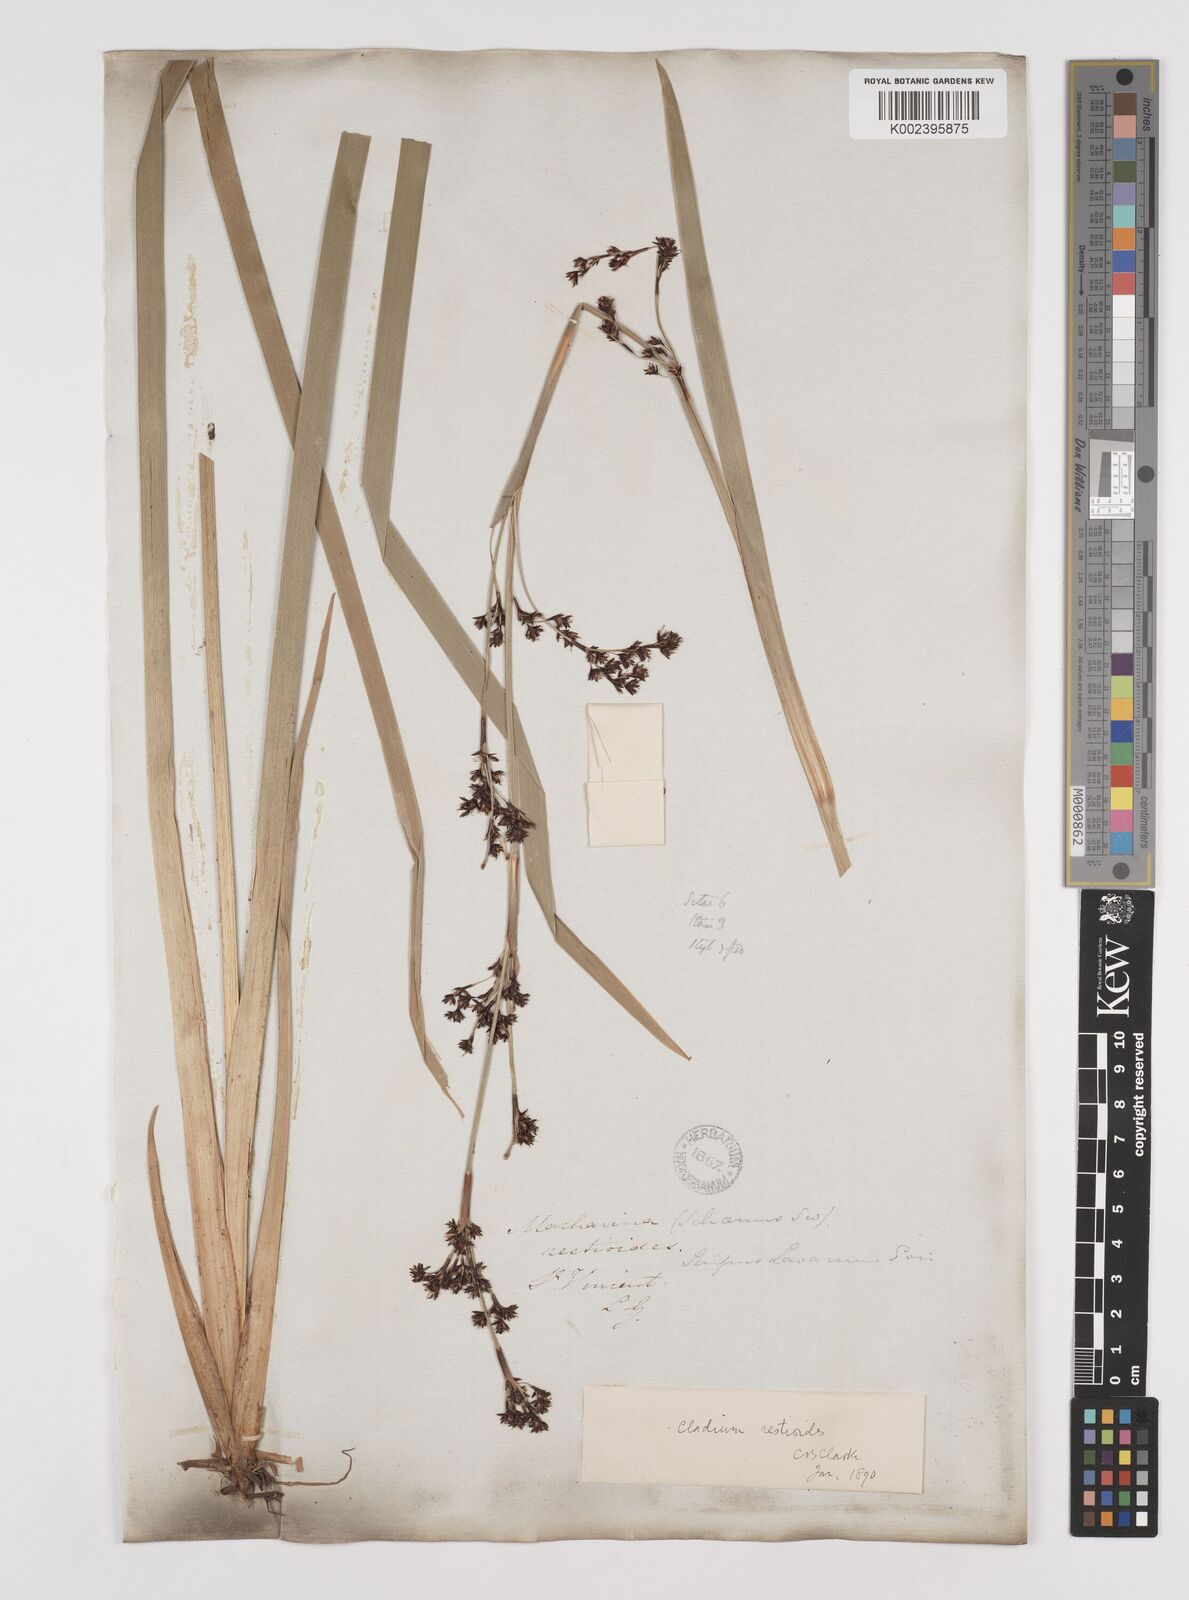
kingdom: Plantae
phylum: Tracheophyta
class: Liliopsida
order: Poales
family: Cyperaceae
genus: Machaerina
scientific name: Machaerina restioides
